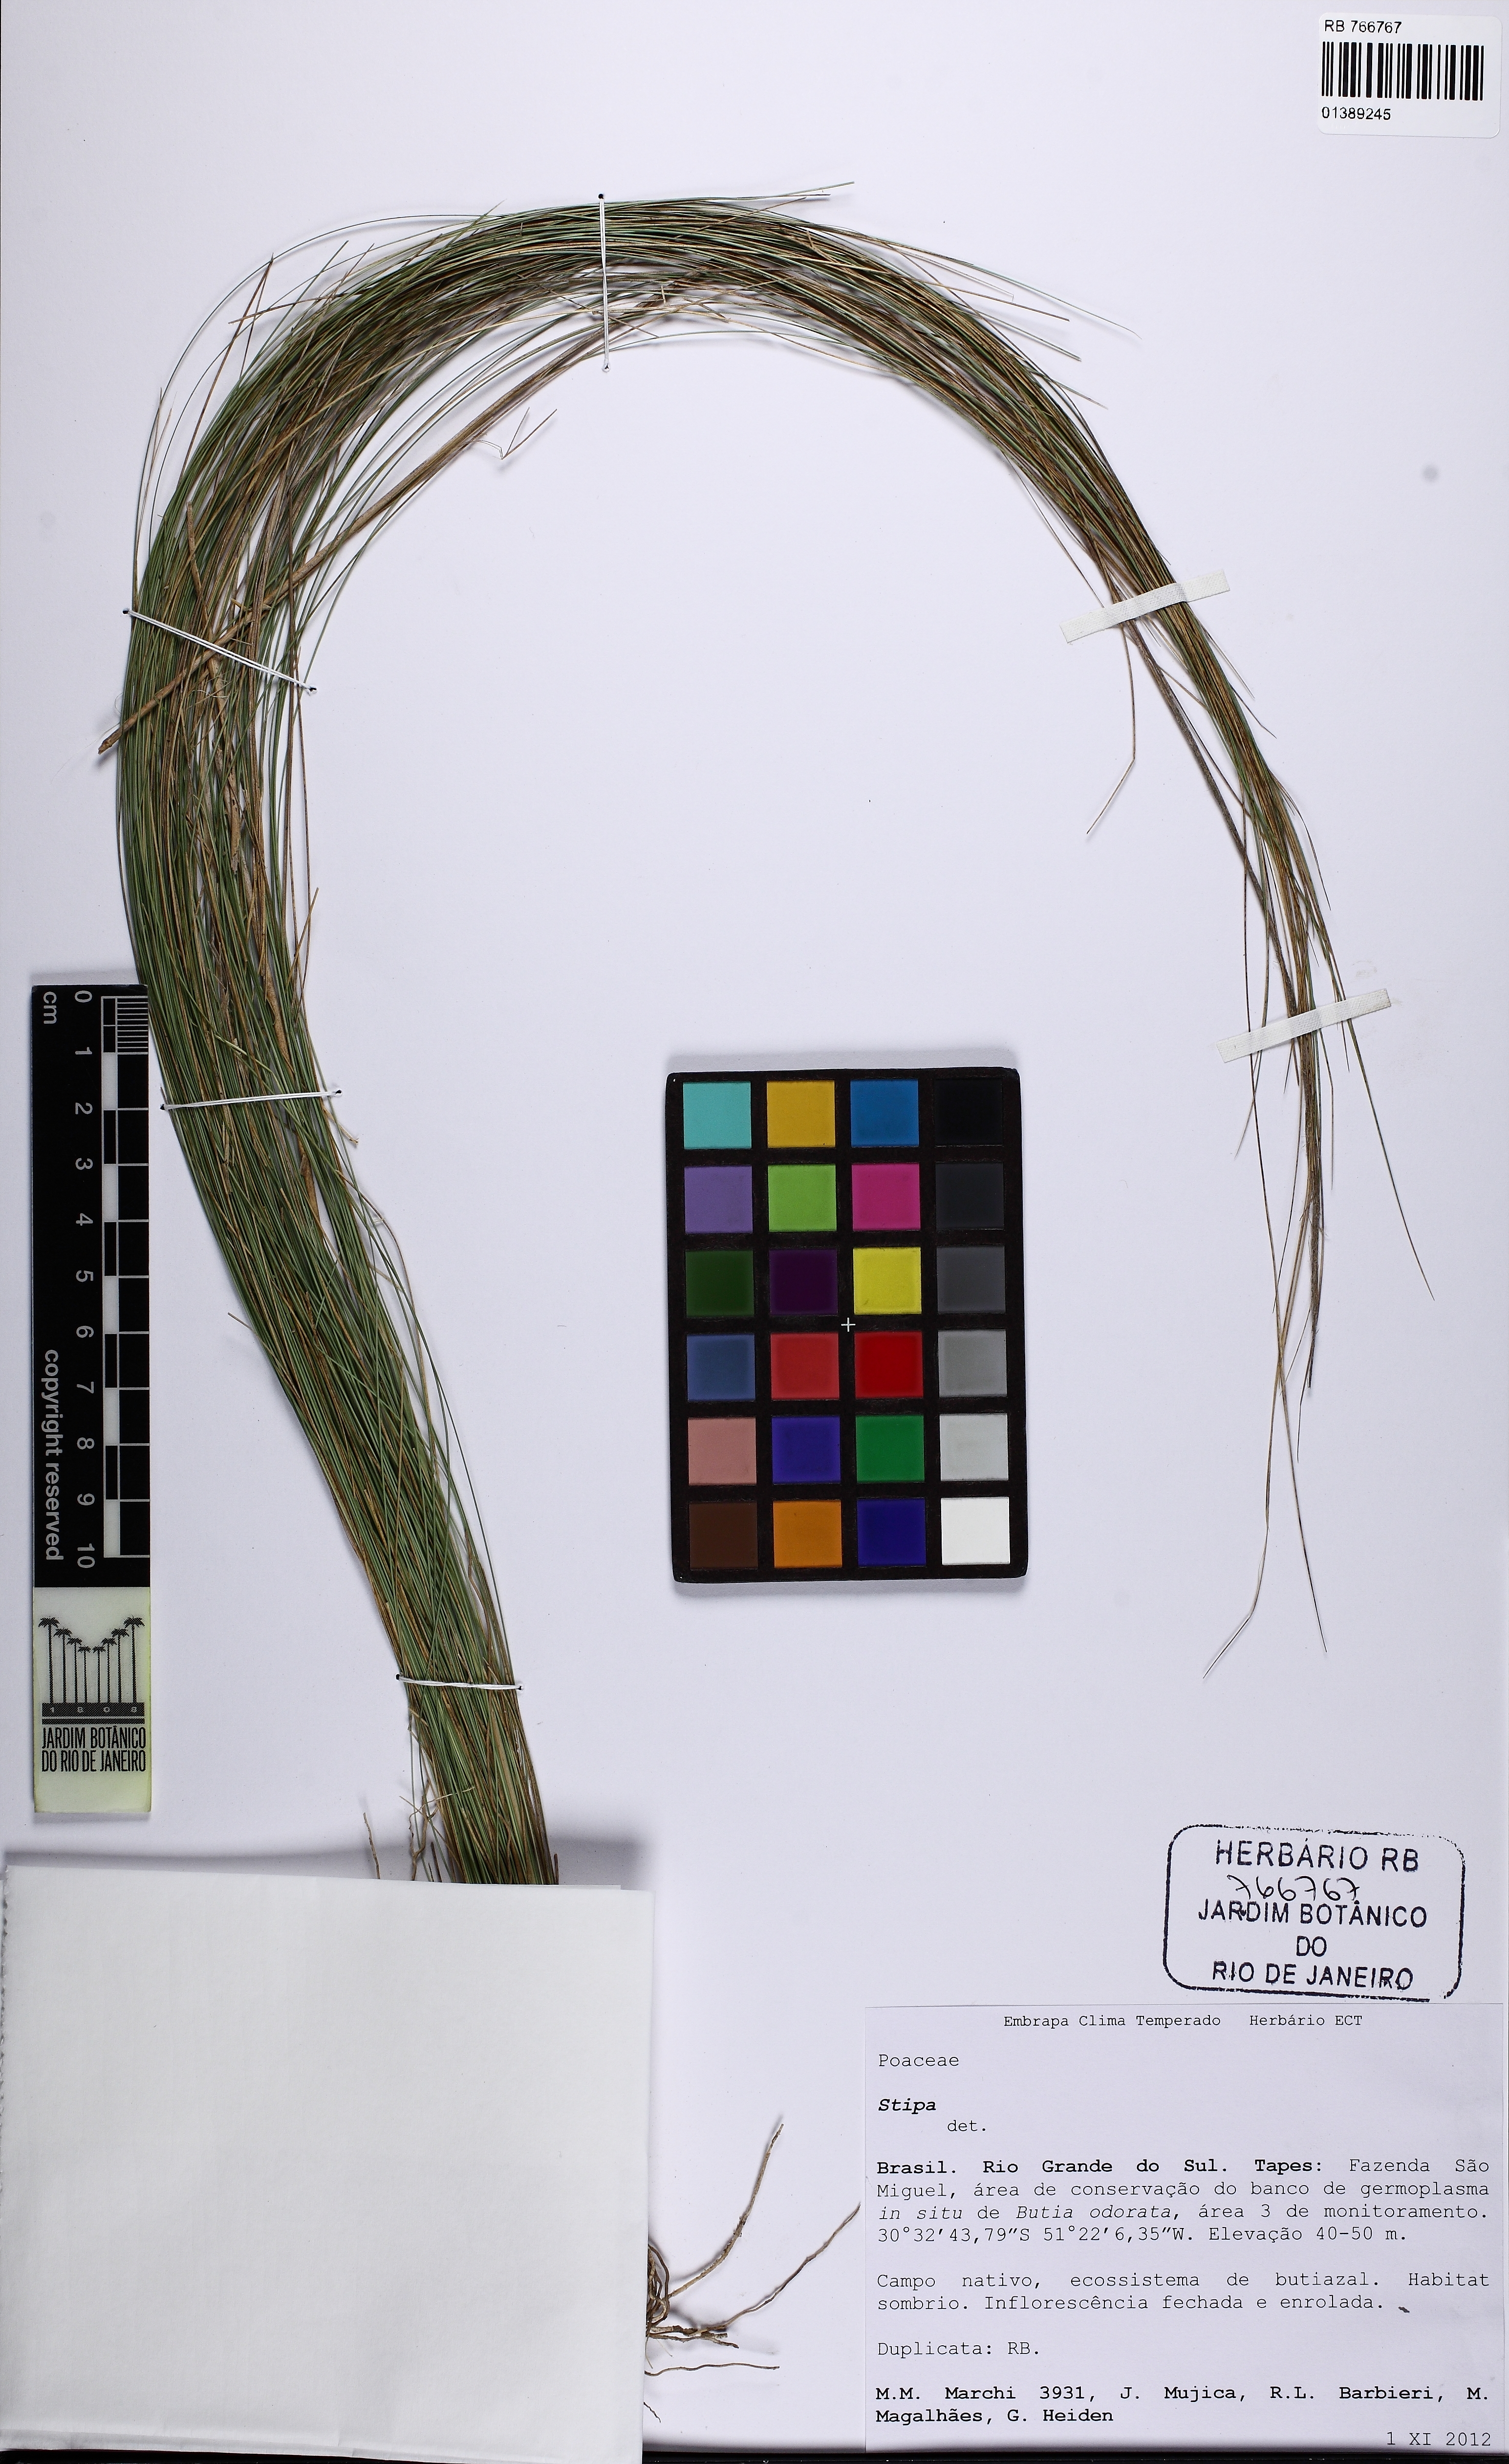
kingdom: Plantae
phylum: Tracheophyta
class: Liliopsida
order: Poales
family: Poaceae
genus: Stipa
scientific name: Stipa
